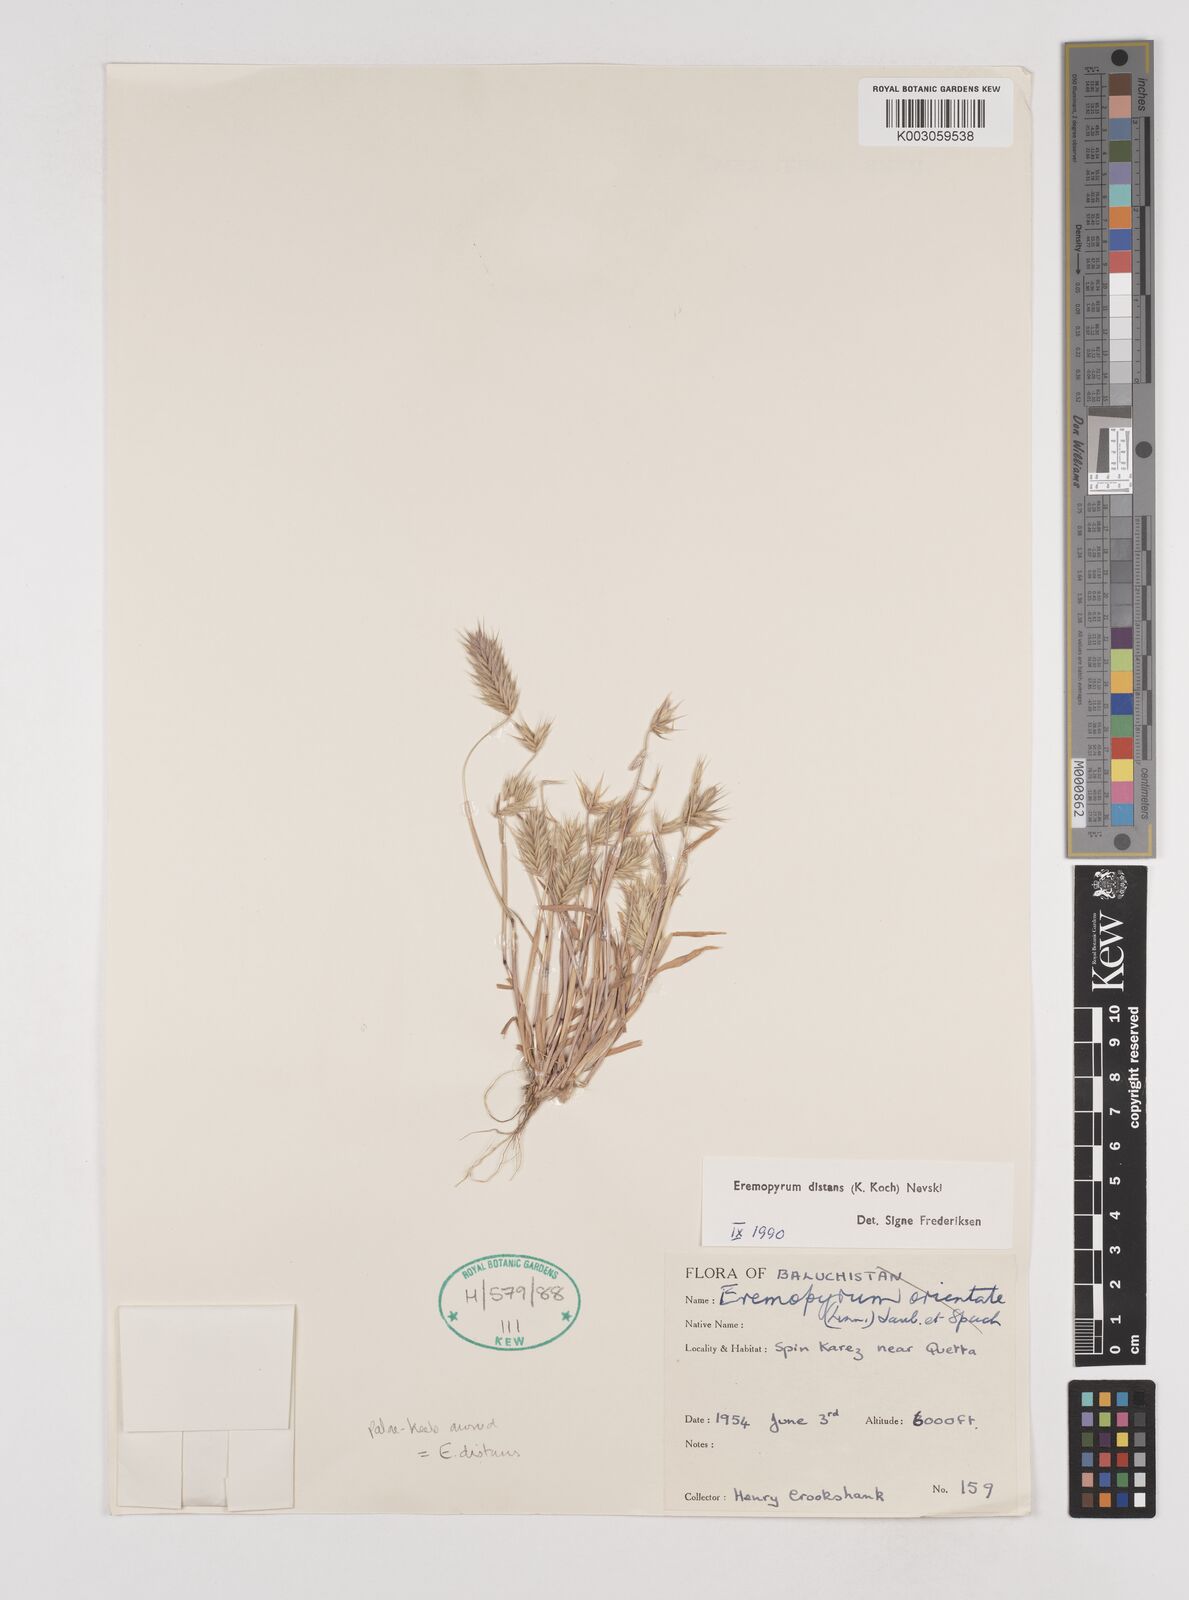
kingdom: Plantae
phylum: Tracheophyta
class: Liliopsida
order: Poales
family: Poaceae
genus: Eremopyrum
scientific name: Eremopyrum distans
